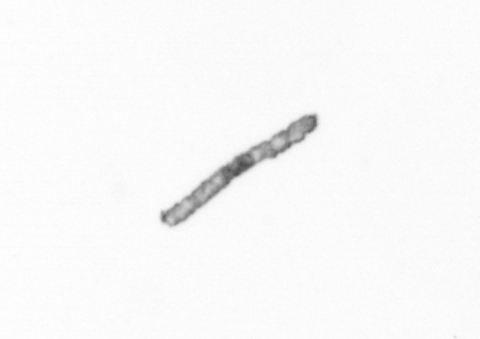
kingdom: Chromista
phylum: Ochrophyta
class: Bacillariophyceae
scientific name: Bacillariophyceae
